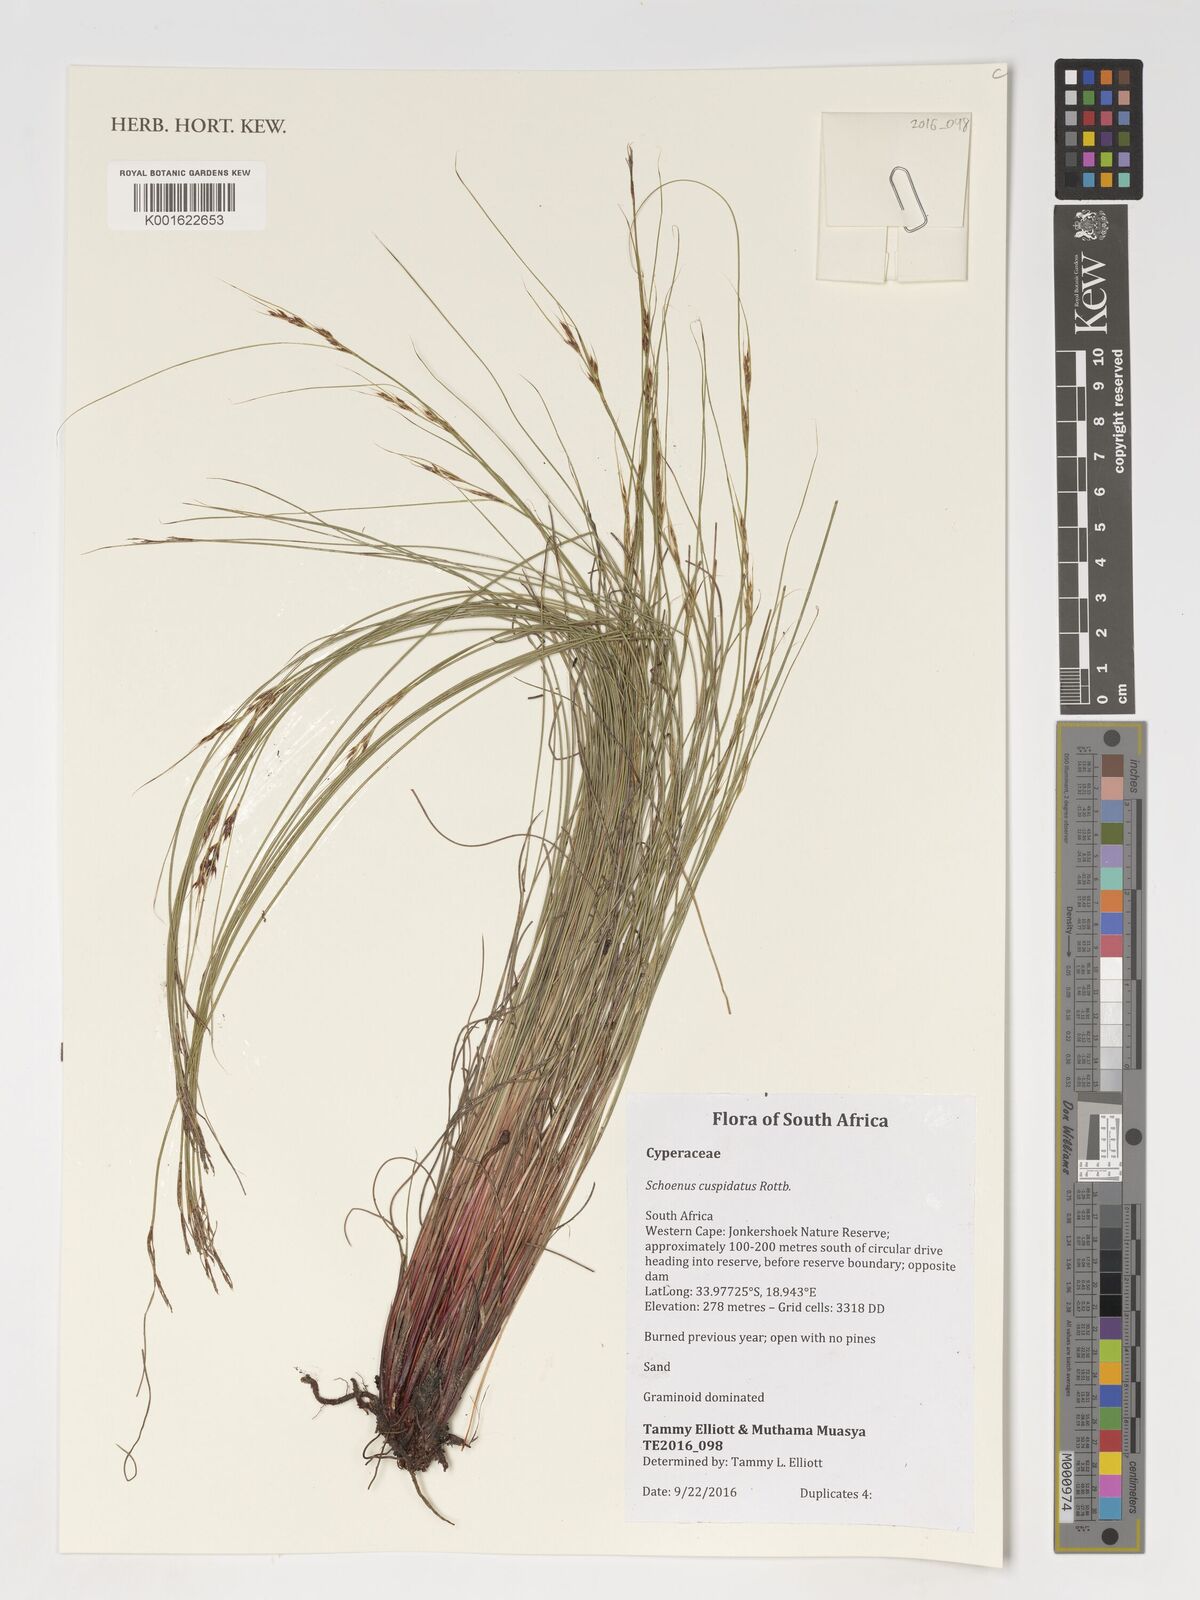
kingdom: Plantae
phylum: Tracheophyta
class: Liliopsida
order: Poales
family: Cyperaceae
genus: Schoenus
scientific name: Schoenus cuspidatus
